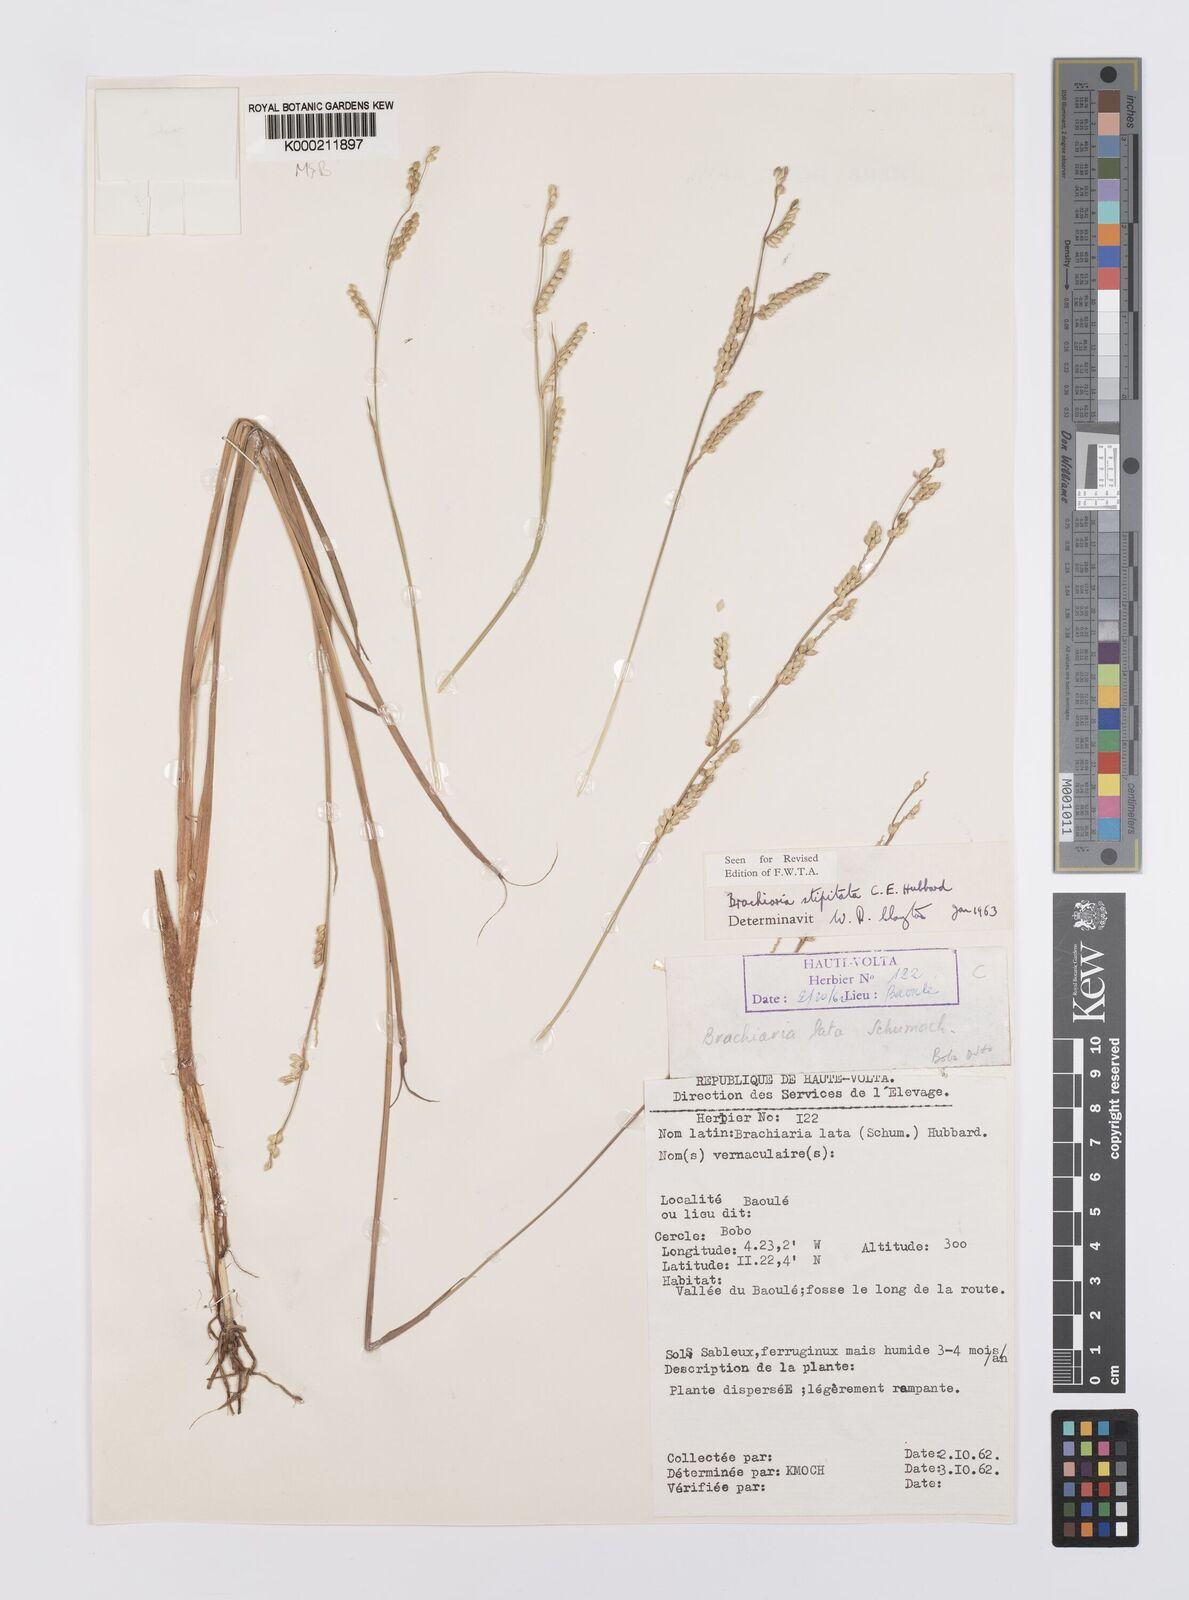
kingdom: Plantae
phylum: Tracheophyta
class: Liliopsida
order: Poales
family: Poaceae
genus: Echinochloa
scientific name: Echinochloa callopus
